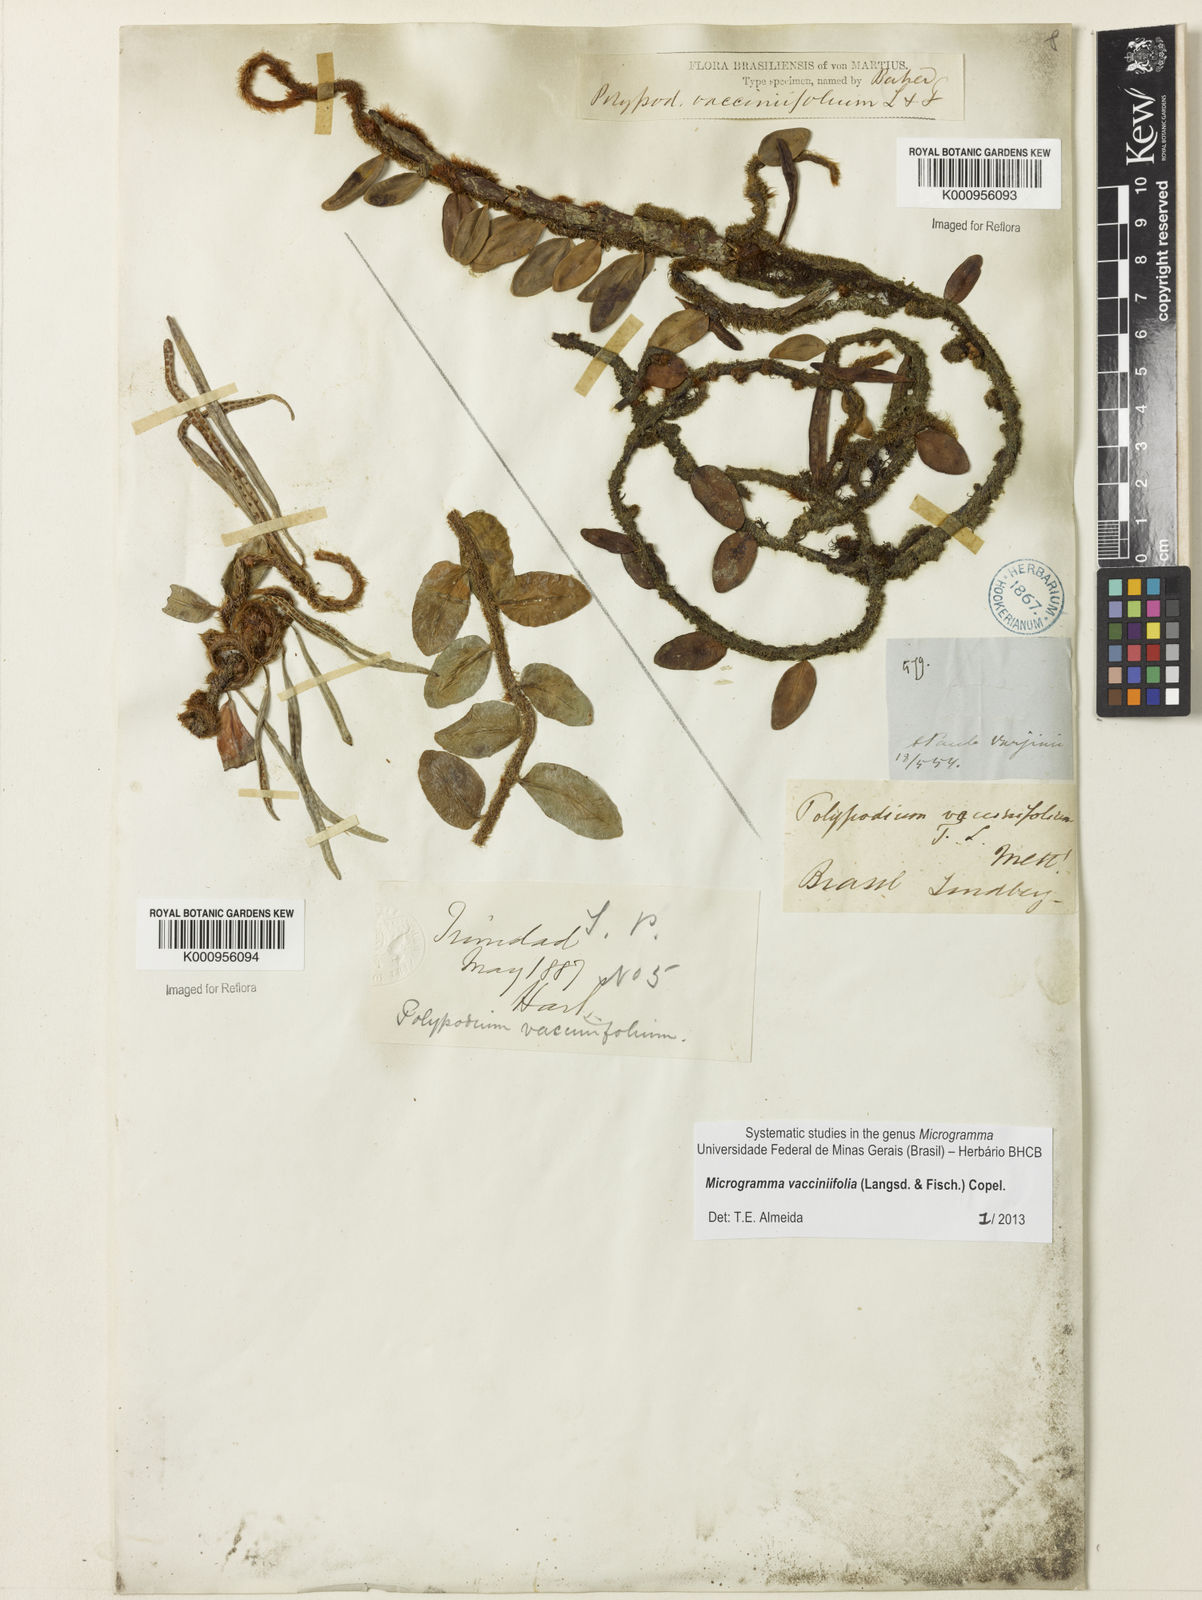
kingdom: Plantae
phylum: Tracheophyta
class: Polypodiopsida
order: Polypodiales
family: Polypodiaceae
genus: Phlebodium
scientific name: Phlebodium
